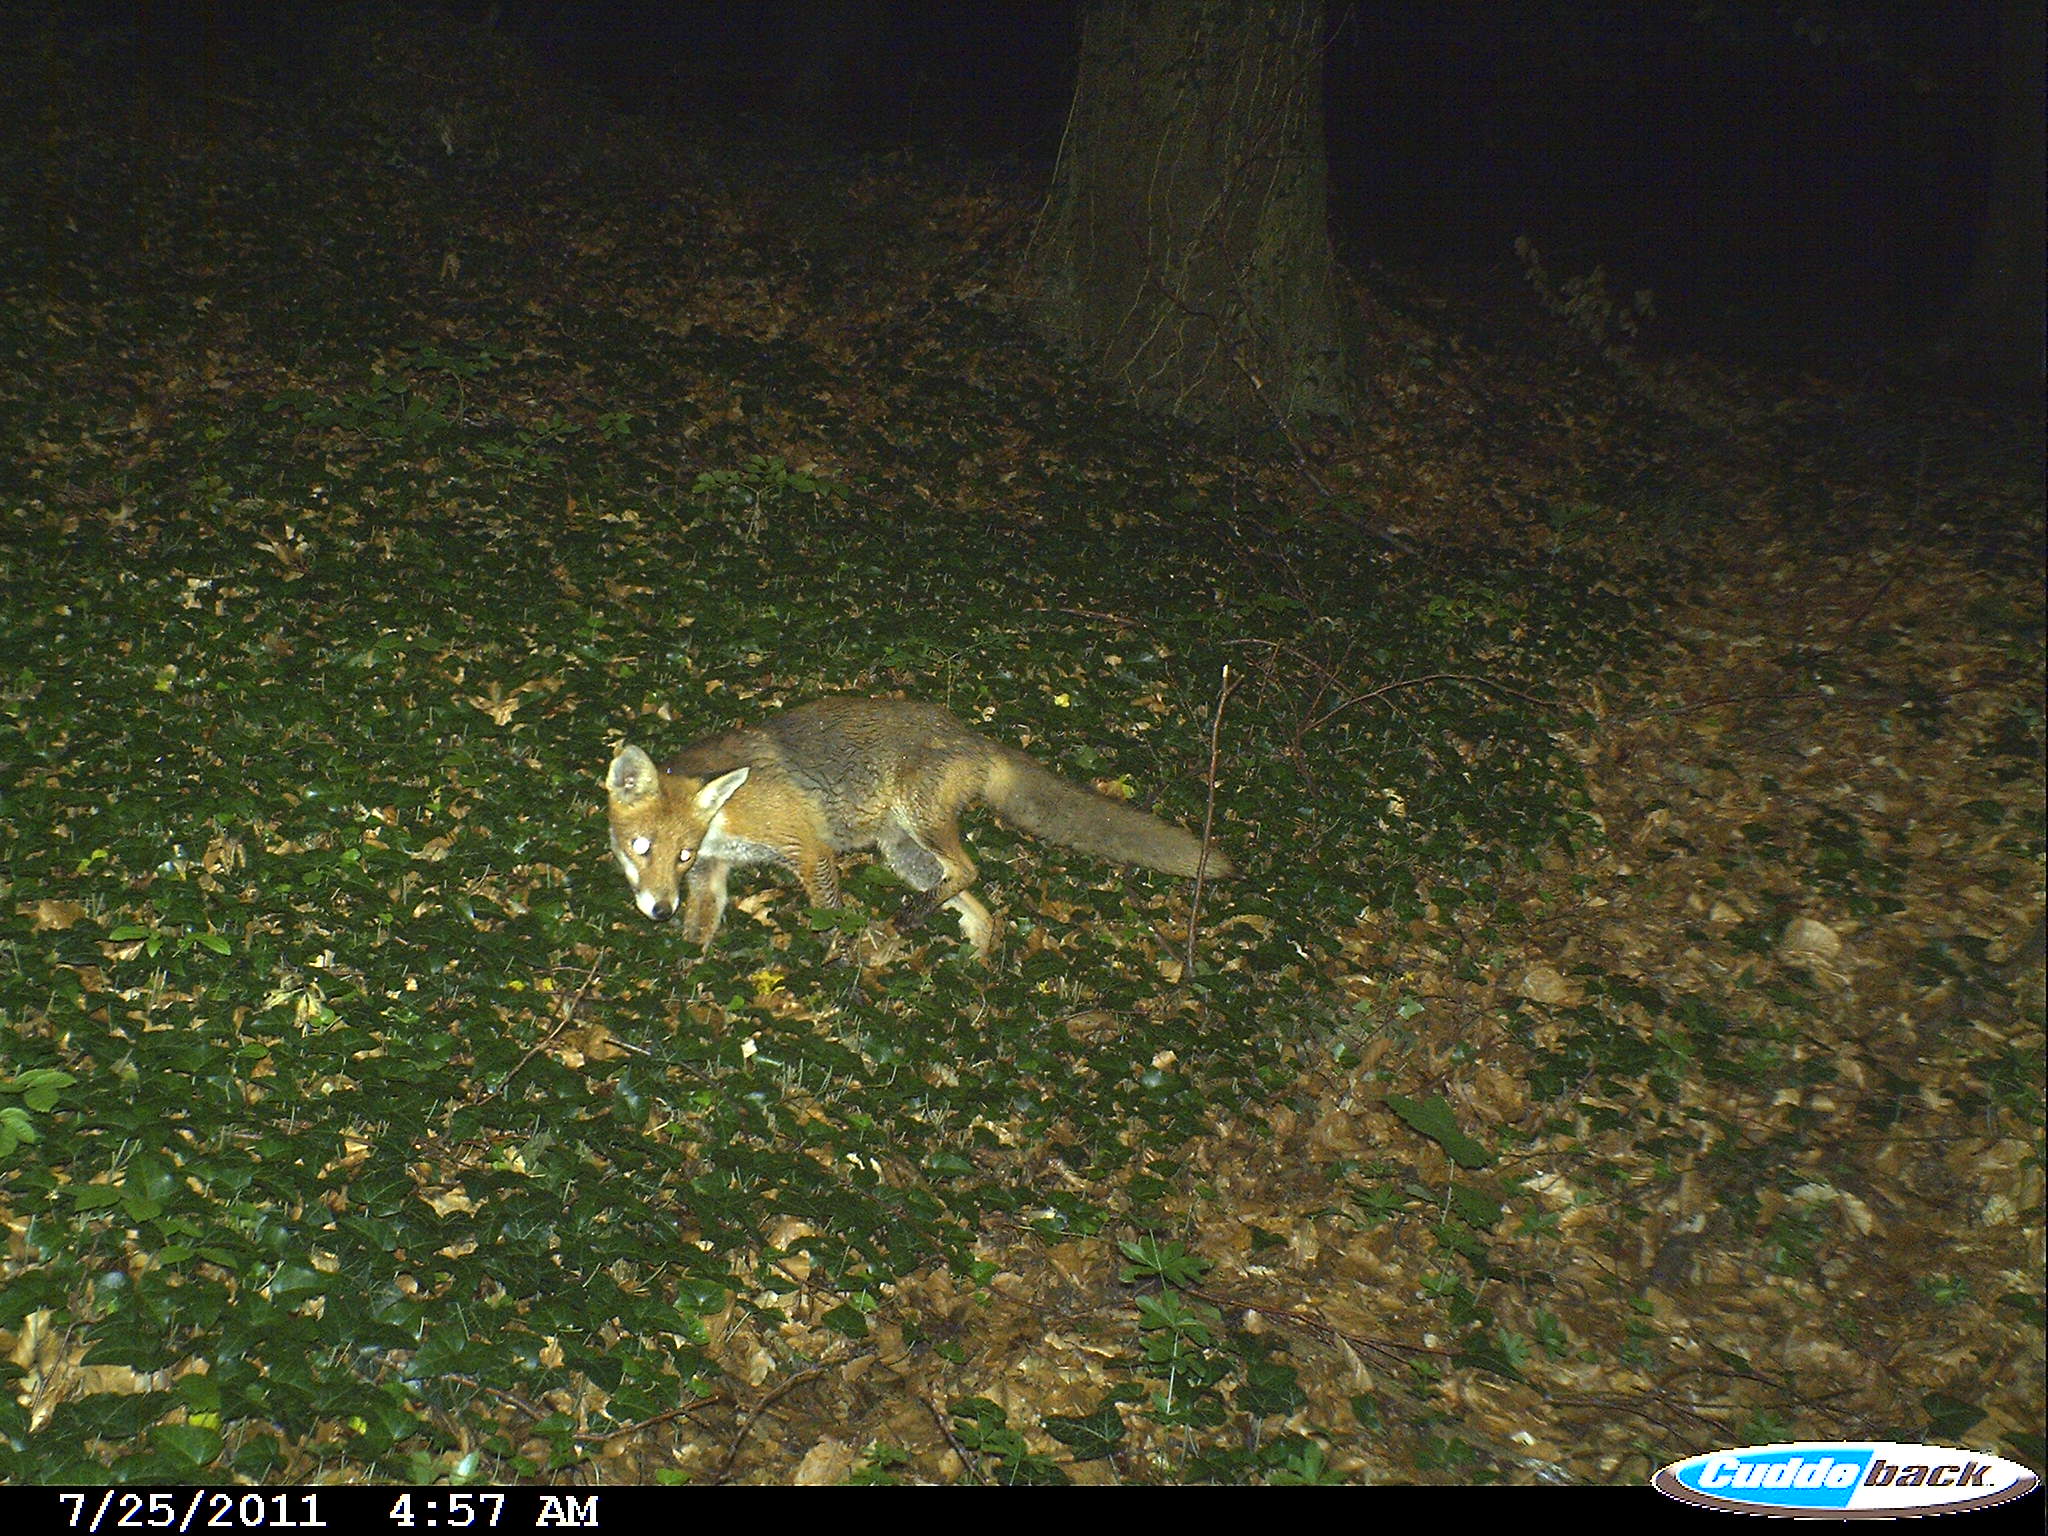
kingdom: Animalia
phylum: Chordata
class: Mammalia
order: Carnivora
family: Canidae
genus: Vulpes
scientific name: Vulpes vulpes
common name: Red fox
